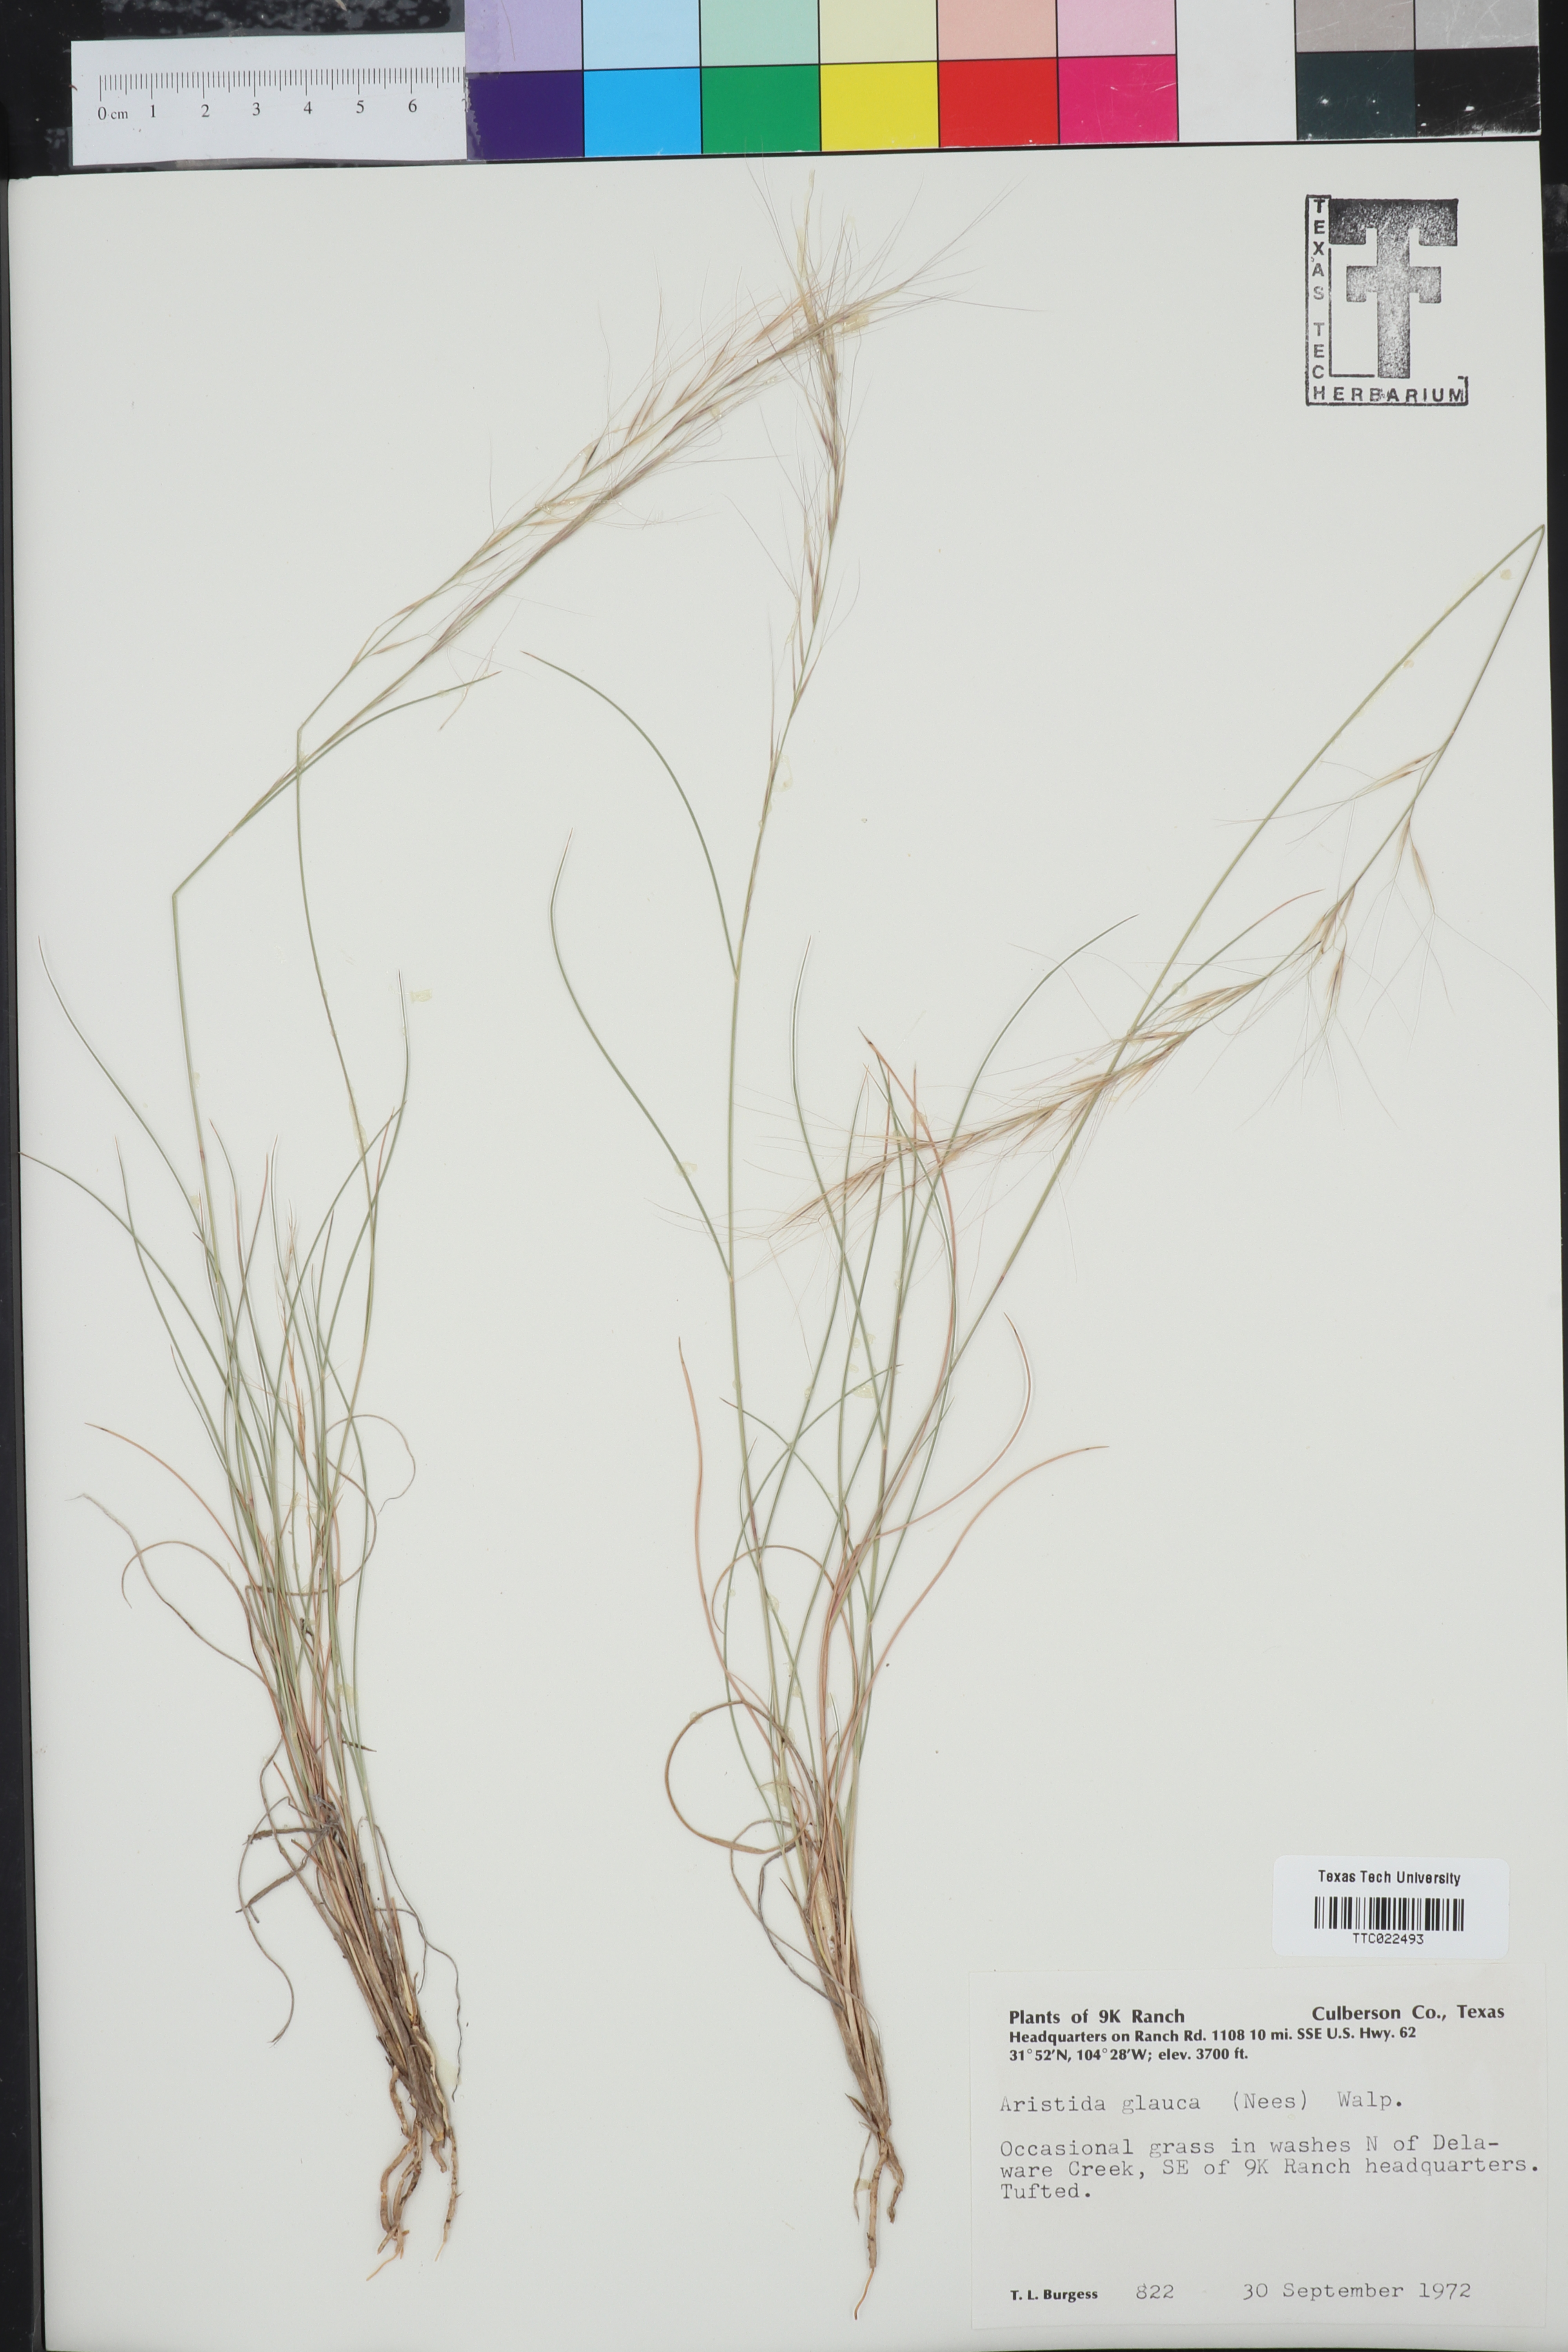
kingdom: Plantae
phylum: Tracheophyta
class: Liliopsida
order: Poales
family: Poaceae
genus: Aristida
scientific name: Aristida glauca
